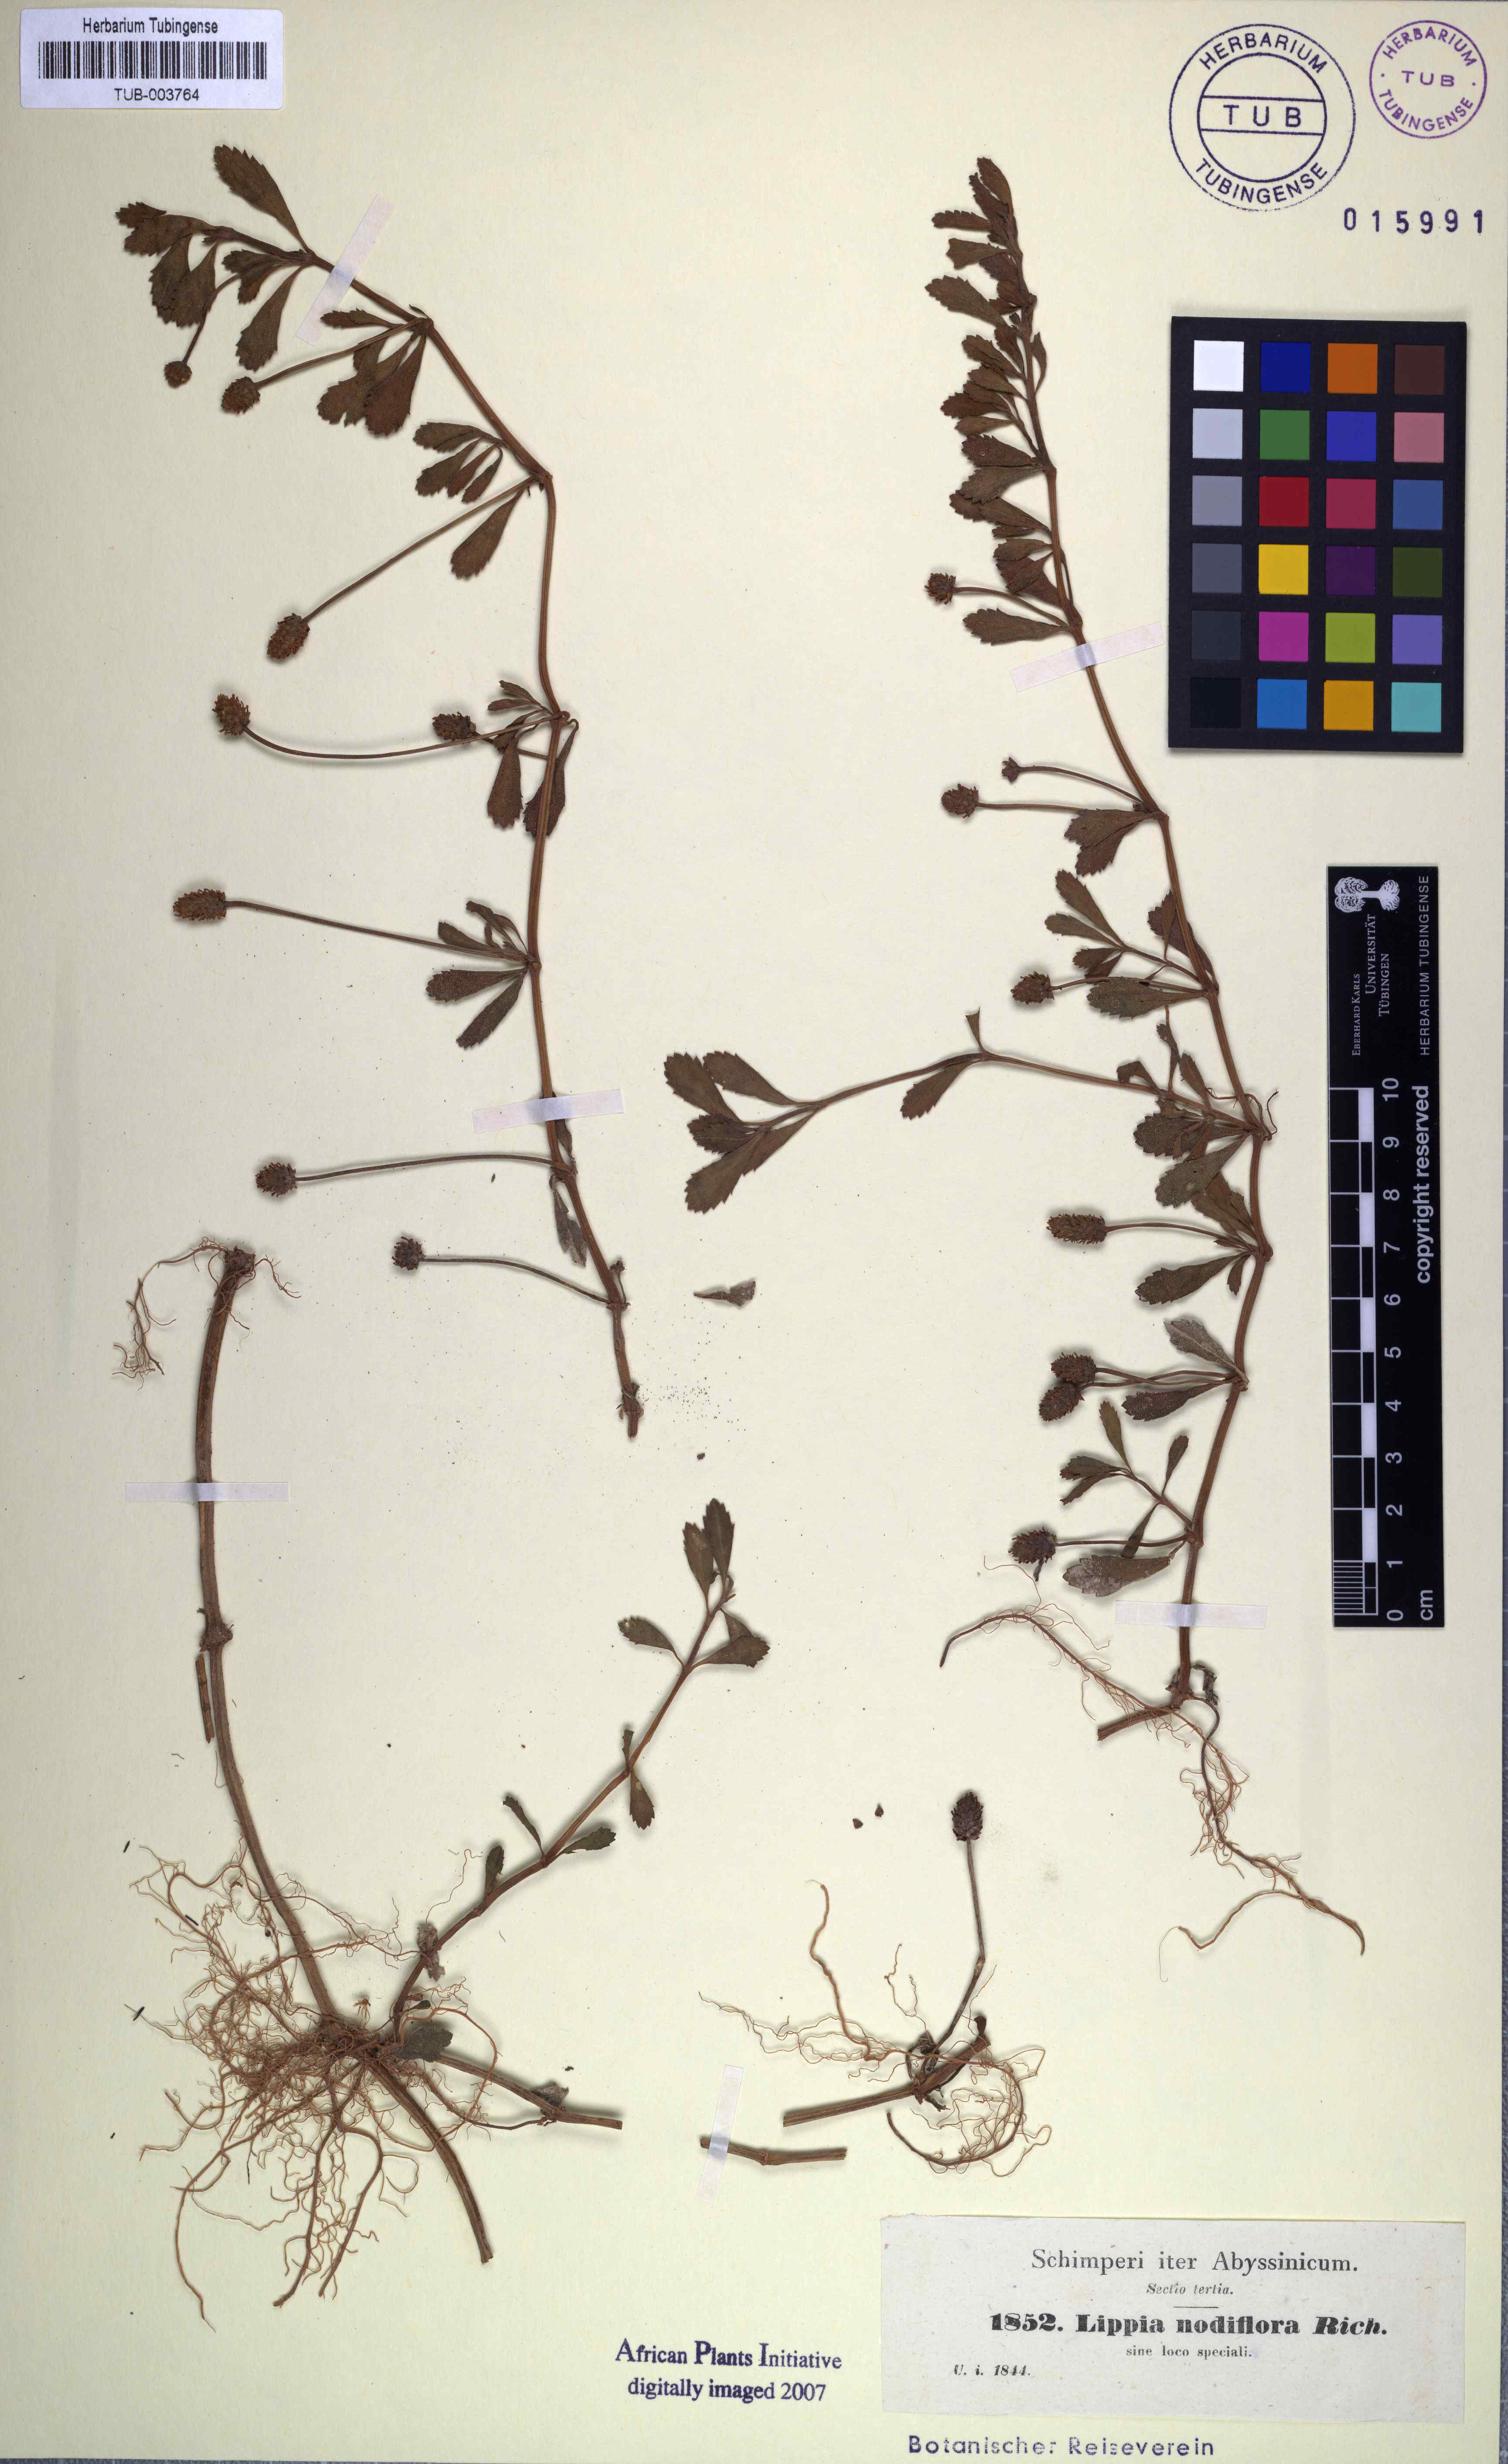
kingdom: Plantae
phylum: Tracheophyta
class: Magnoliopsida
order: Lamiales
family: Verbenaceae
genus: Phyla
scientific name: Phyla nodiflora
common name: Frogfruit
